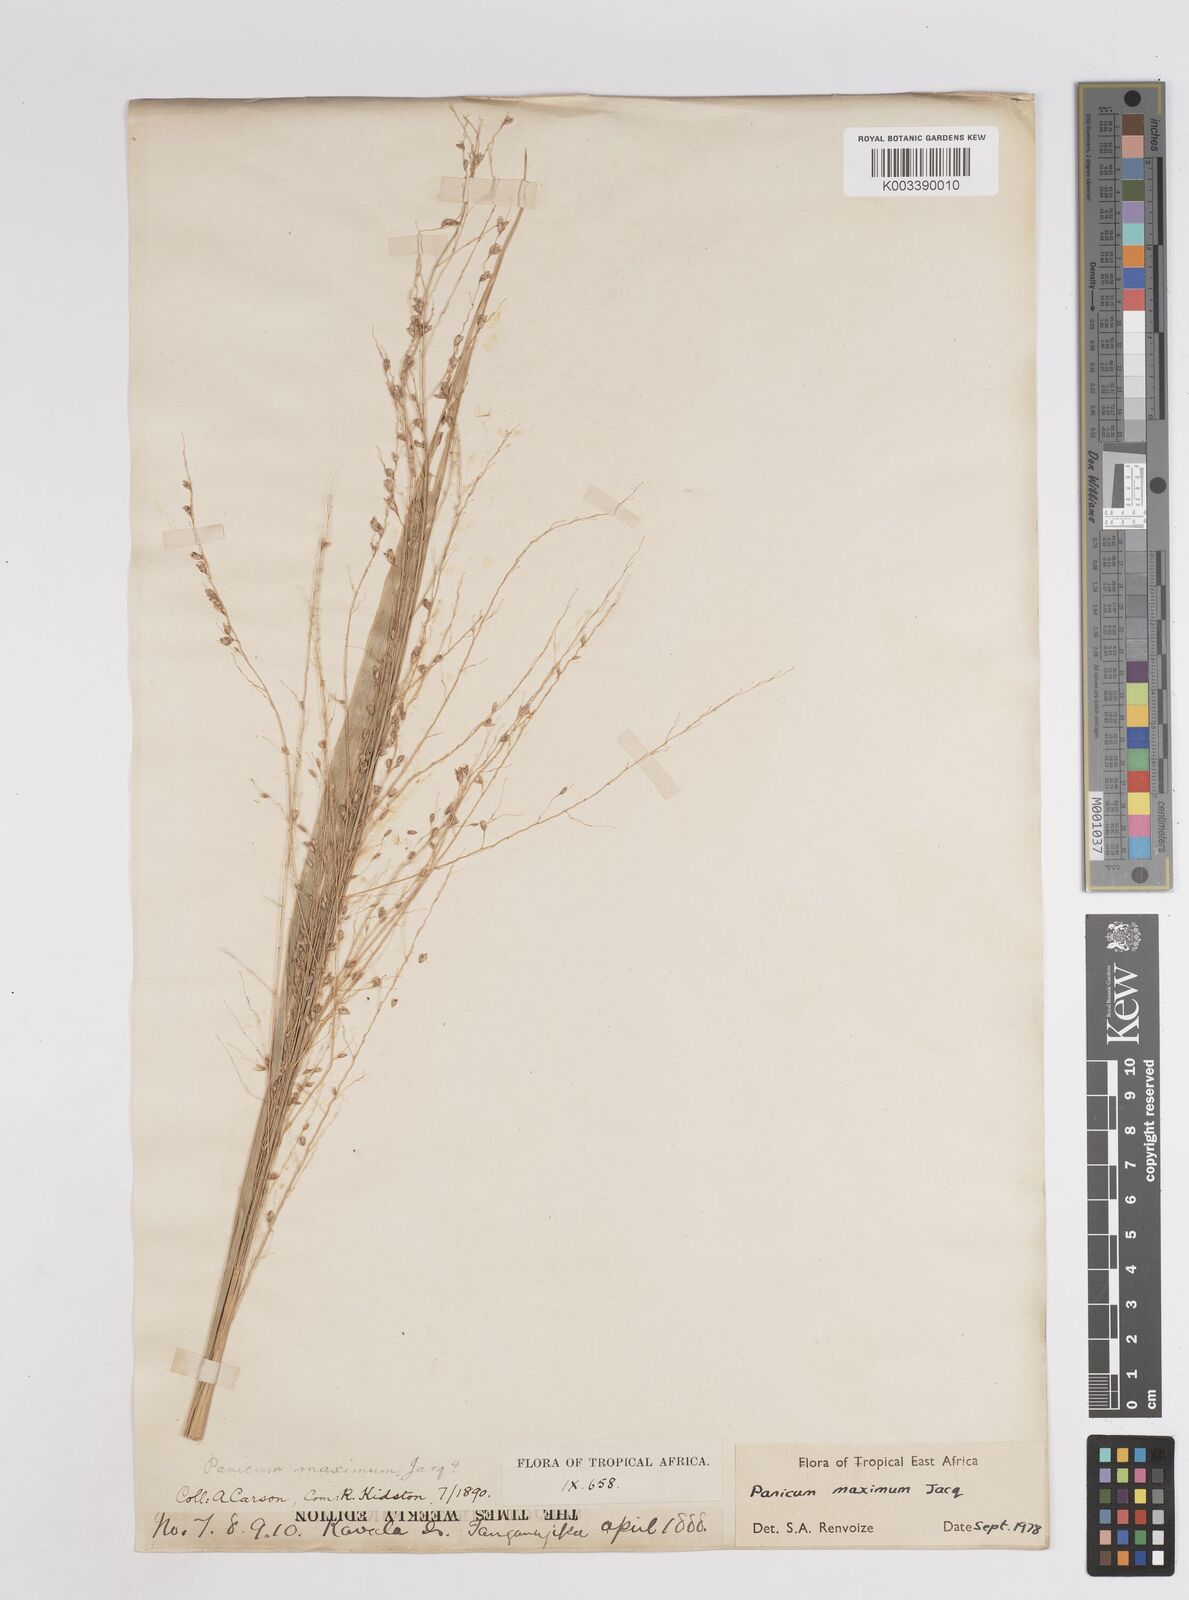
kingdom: Plantae
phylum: Tracheophyta
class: Liliopsida
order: Poales
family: Poaceae
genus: Megathyrsus
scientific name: Megathyrsus maximus
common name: Guineagrass
